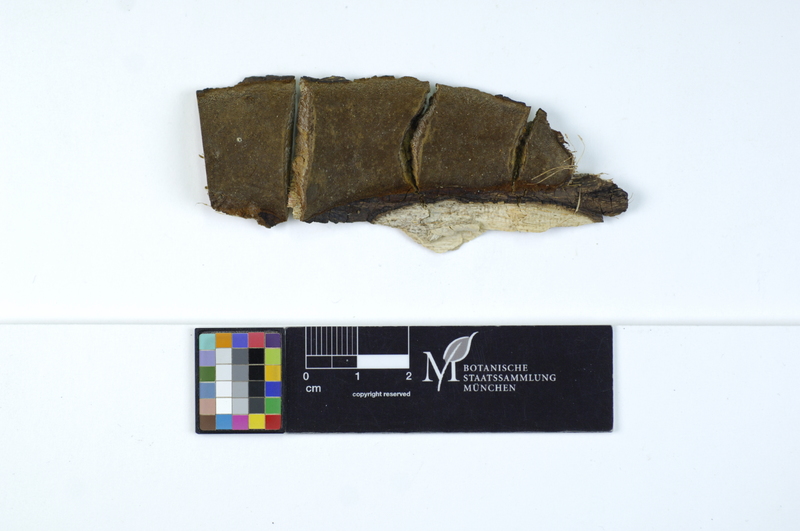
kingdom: Fungi
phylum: Basidiomycota
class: Agaricomycetes
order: Hymenochaetales
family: Hymenochaetaceae
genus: Phellinus
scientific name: Phellinus rhamni
